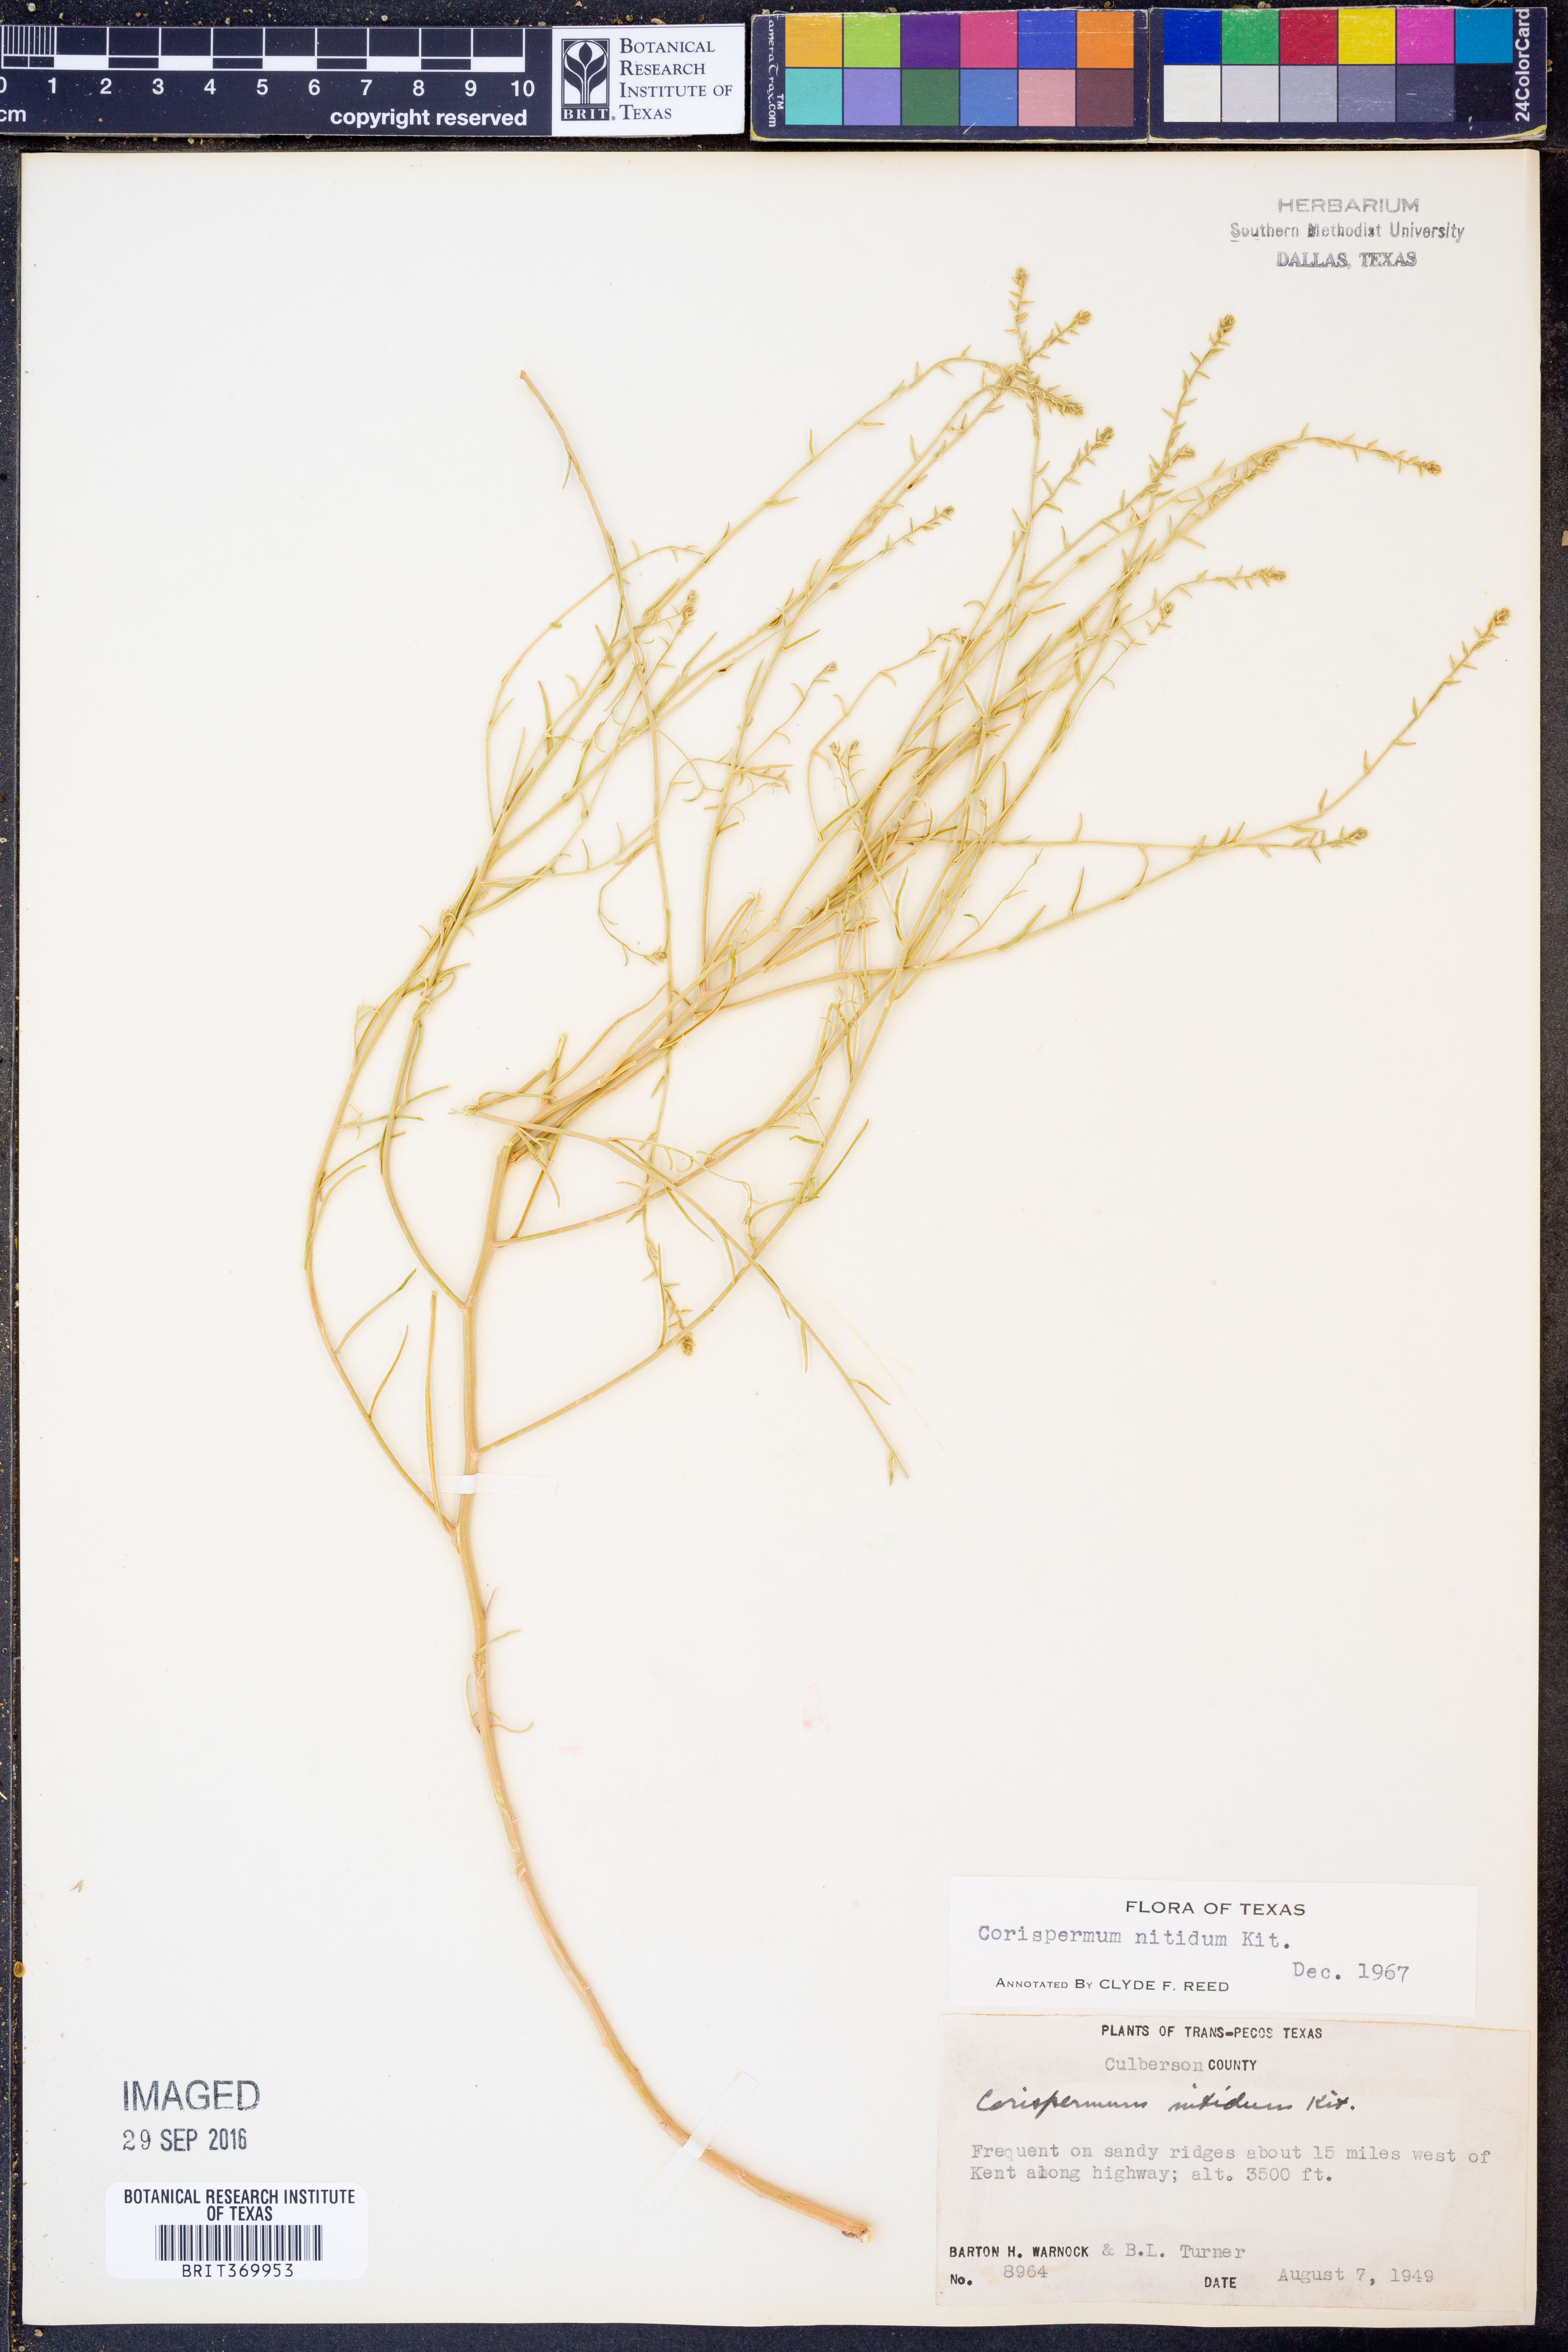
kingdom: Plantae
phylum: Tracheophyta
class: Magnoliopsida
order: Caryophyllales
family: Amaranthaceae
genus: Corispermum
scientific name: Corispermum nitidum
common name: Bugseed
